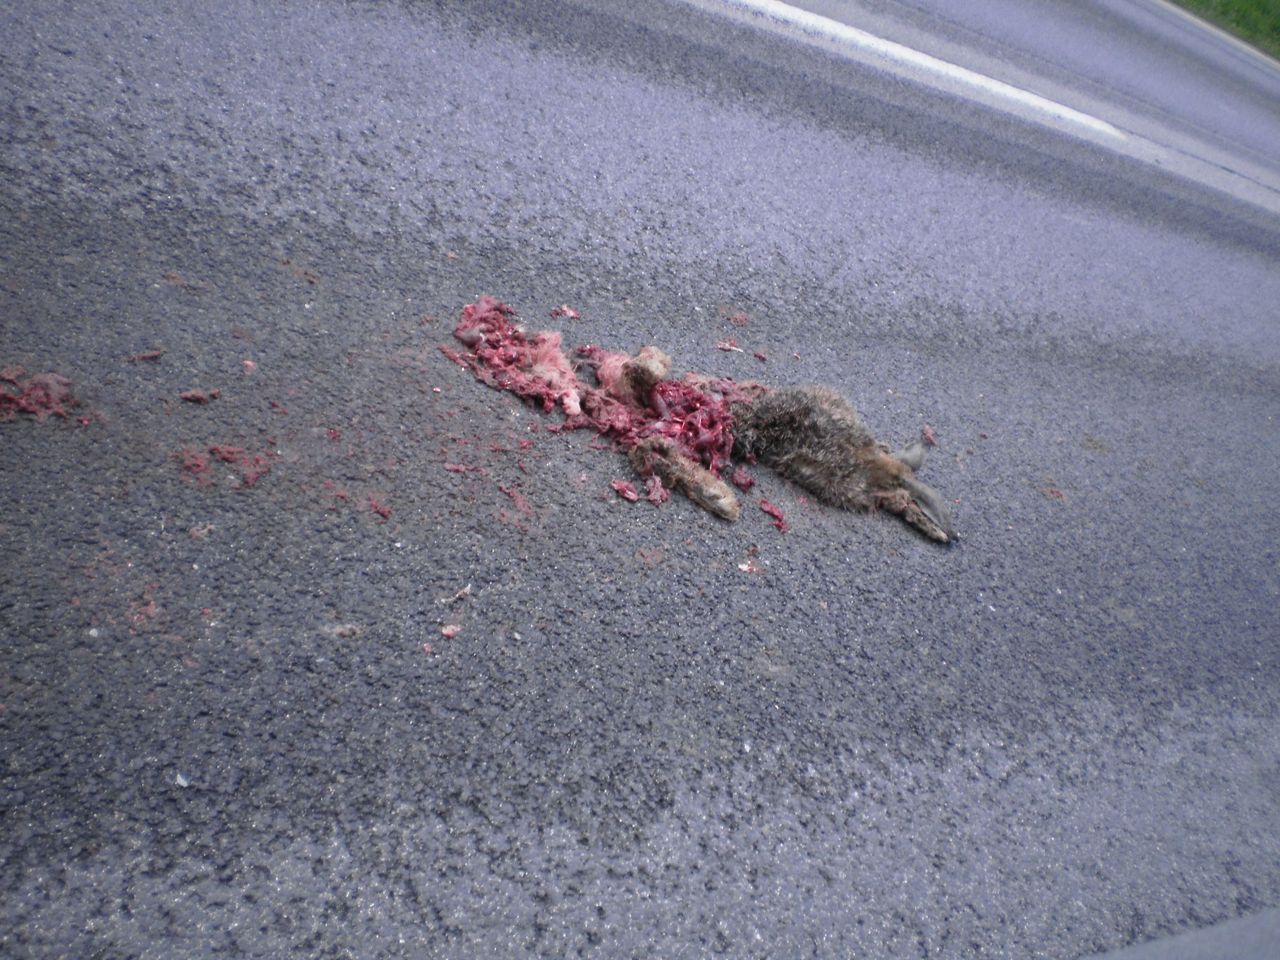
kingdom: Animalia
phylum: Chordata
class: Mammalia
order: Lagomorpha
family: Leporidae
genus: Lepus
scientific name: Lepus europaeus
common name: European hare
